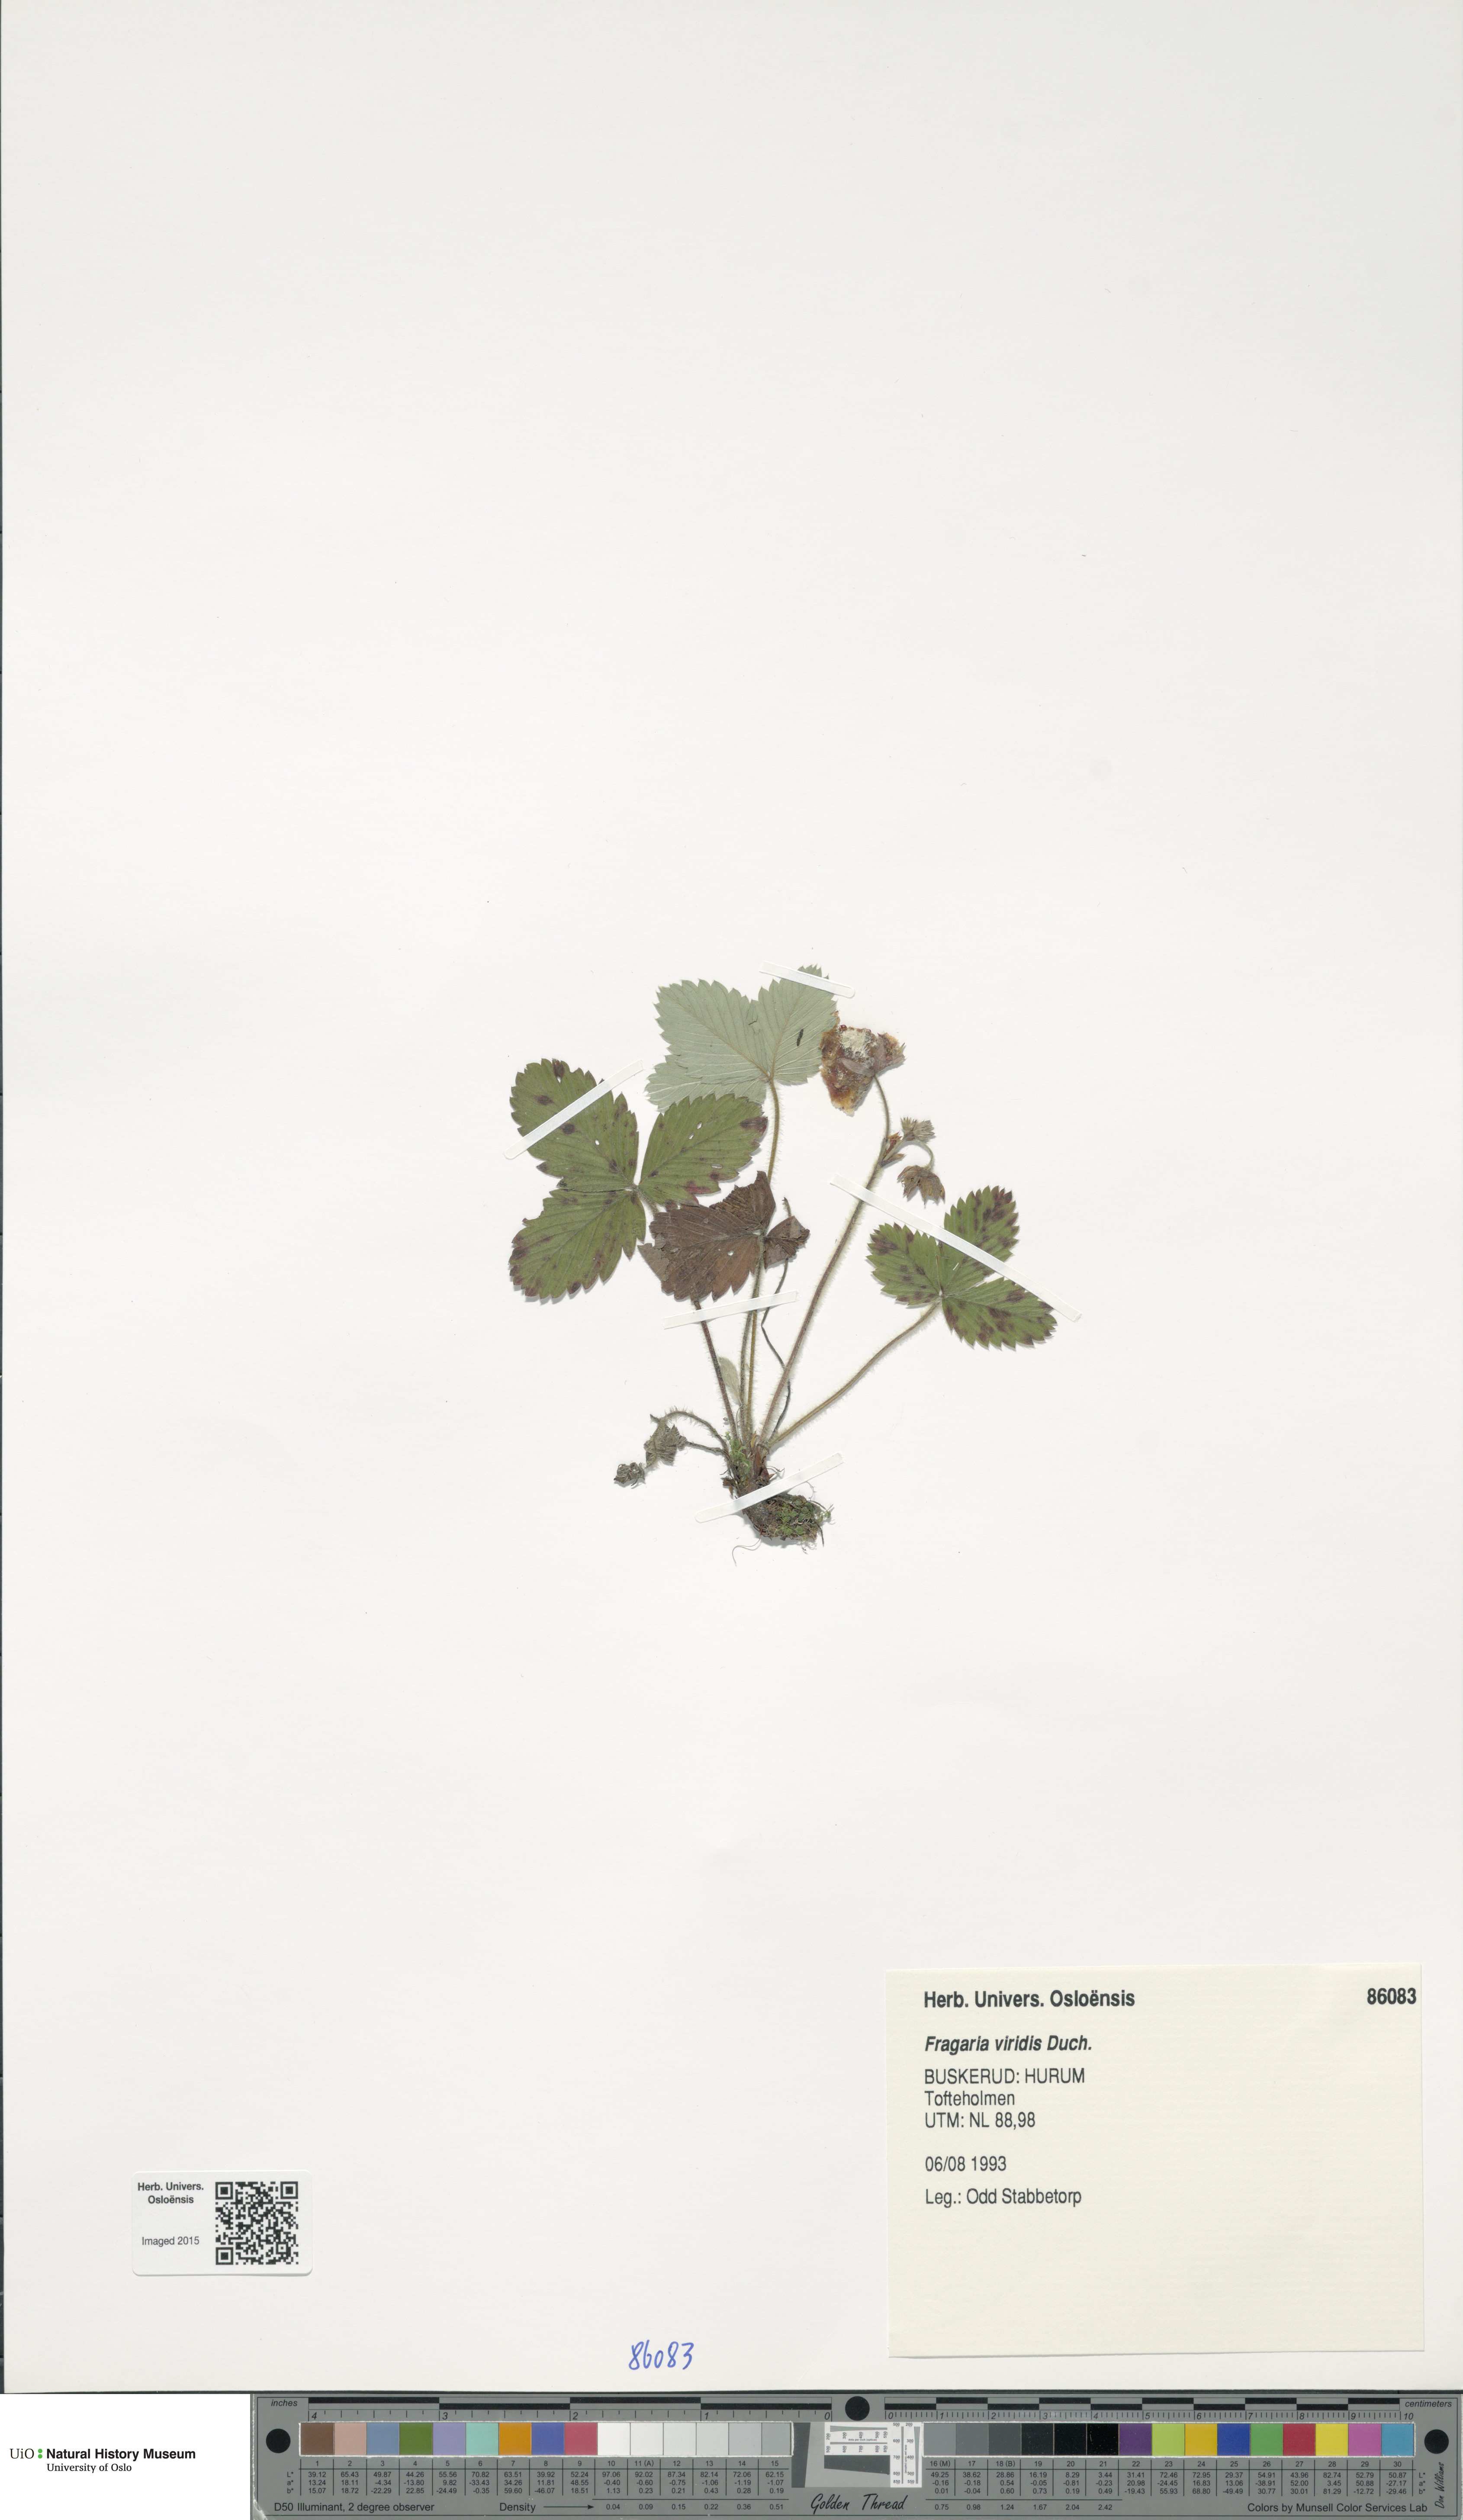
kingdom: Plantae
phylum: Tracheophyta
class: Magnoliopsida
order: Rosales
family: Rosaceae
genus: Fragaria
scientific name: Fragaria viridis
